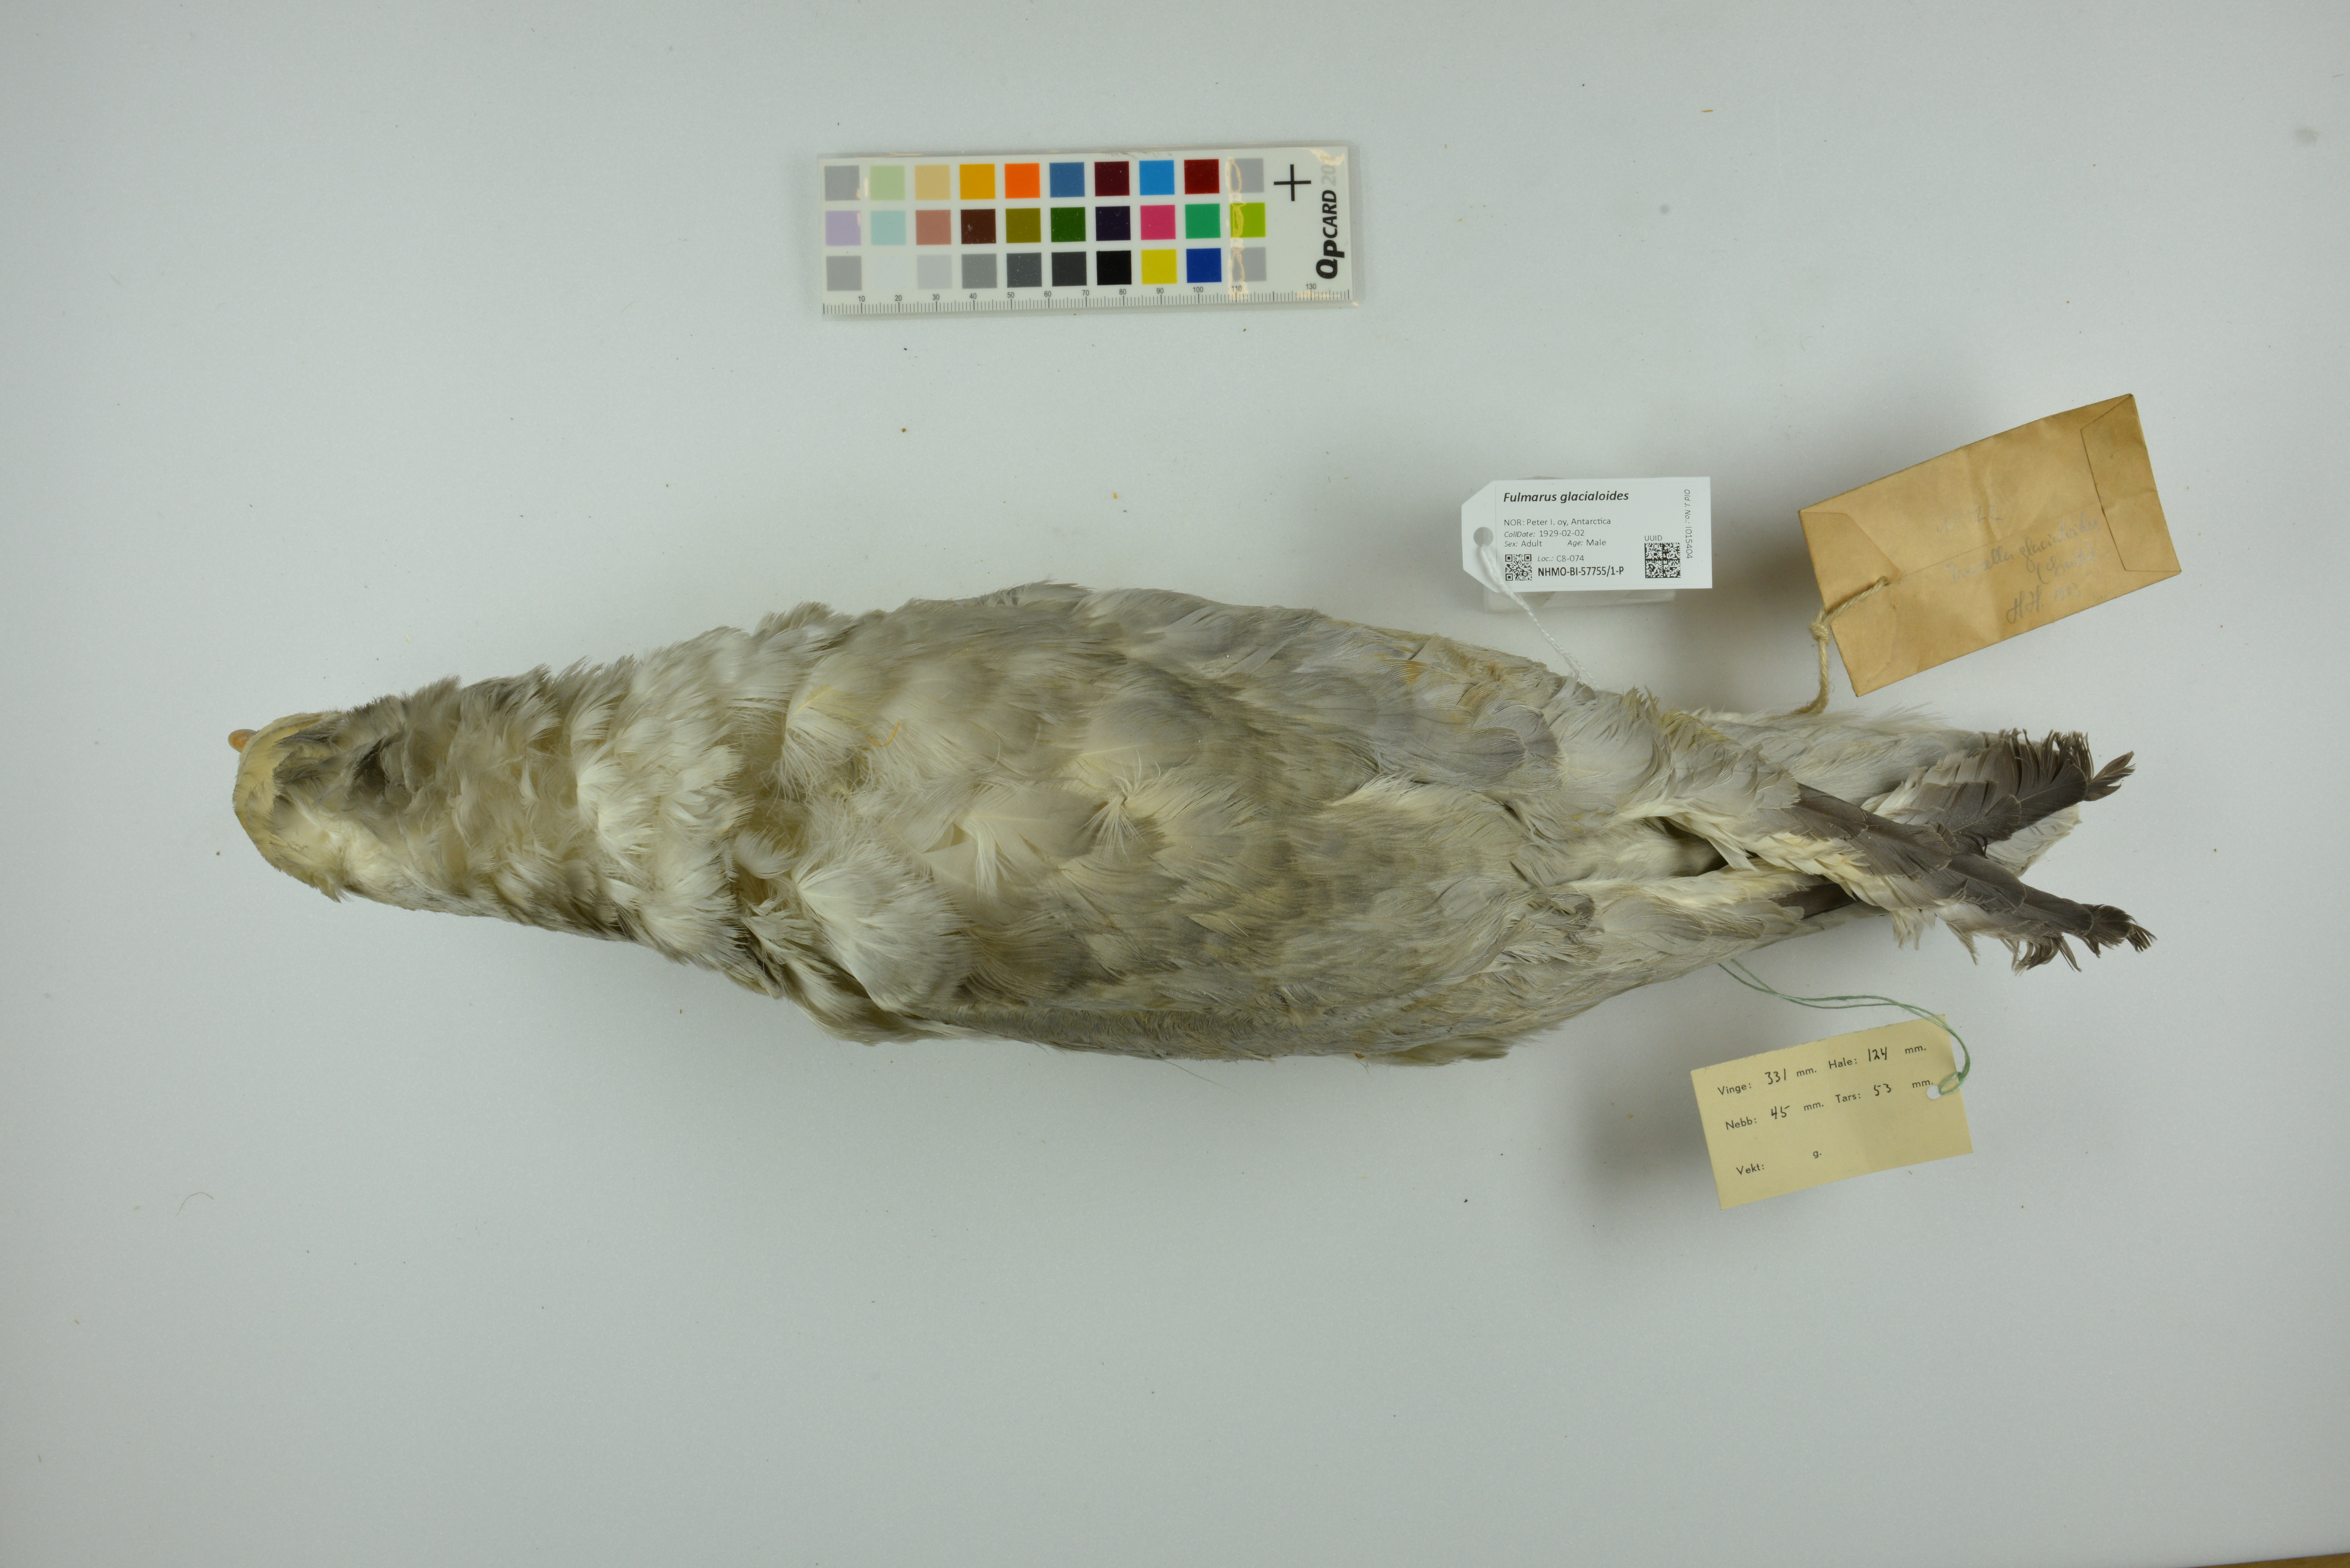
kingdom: Animalia
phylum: Chordata
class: Aves
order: Procellariiformes
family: Procellariidae
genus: Fulmarus
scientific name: Fulmarus glacialoides
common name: Southern fulmar
